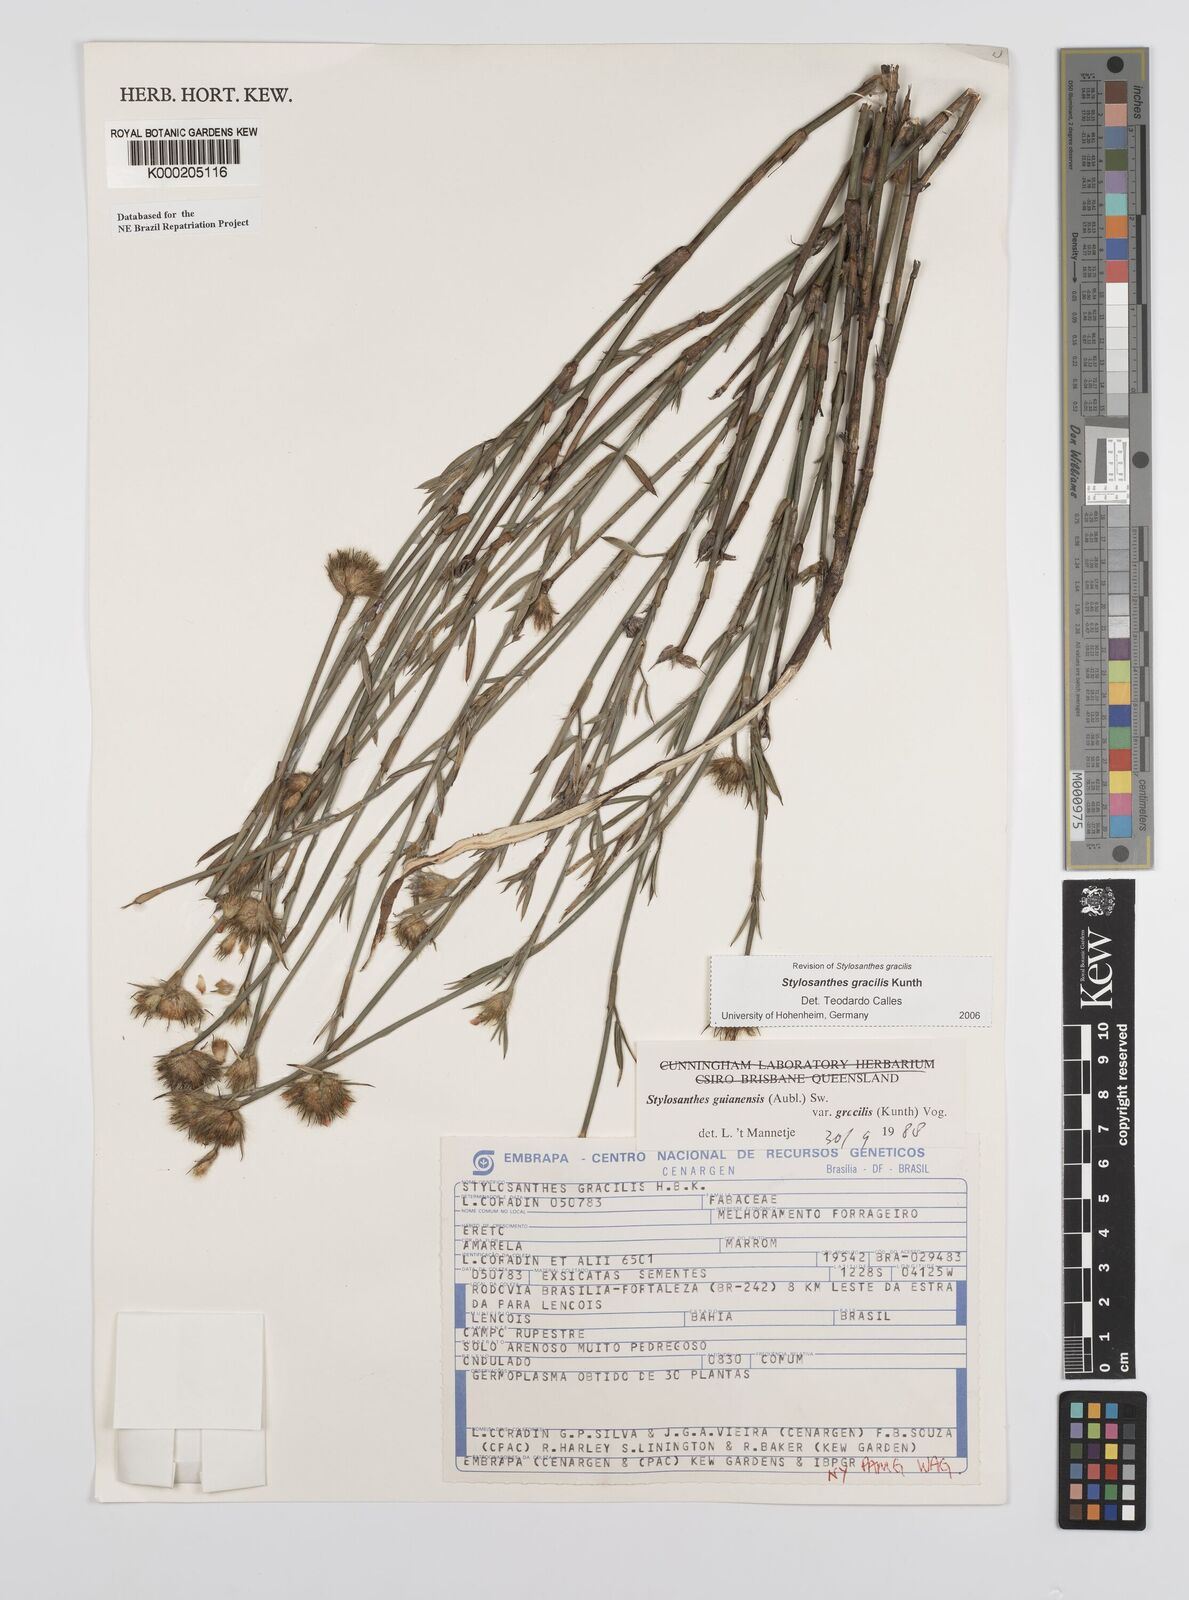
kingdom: Plantae
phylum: Tracheophyta
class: Magnoliopsida
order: Fabales
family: Fabaceae
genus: Stylosanthes
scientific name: Stylosanthes guianensis
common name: Pencil flower
